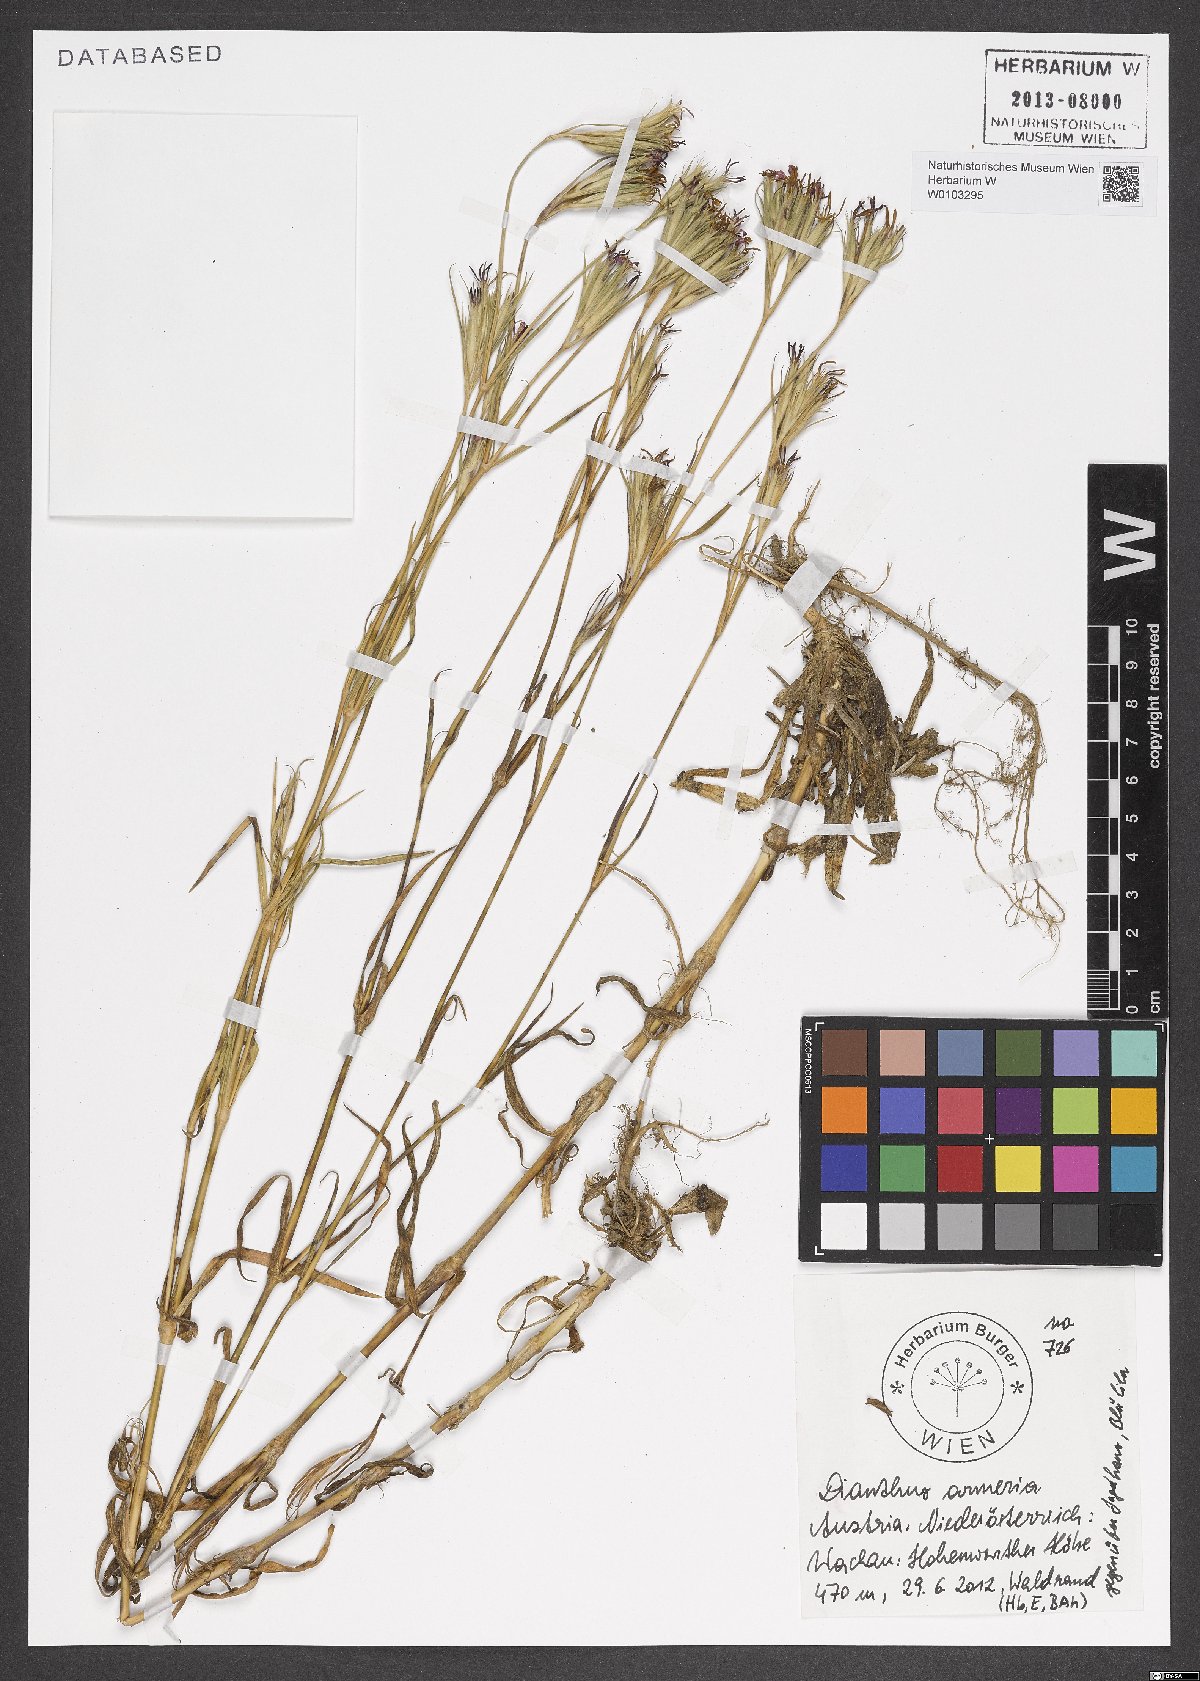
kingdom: Plantae
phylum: Tracheophyta
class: Magnoliopsida
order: Caryophyllales
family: Caryophyllaceae
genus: Dianthus
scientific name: Dianthus armeria
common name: Deptford pink
